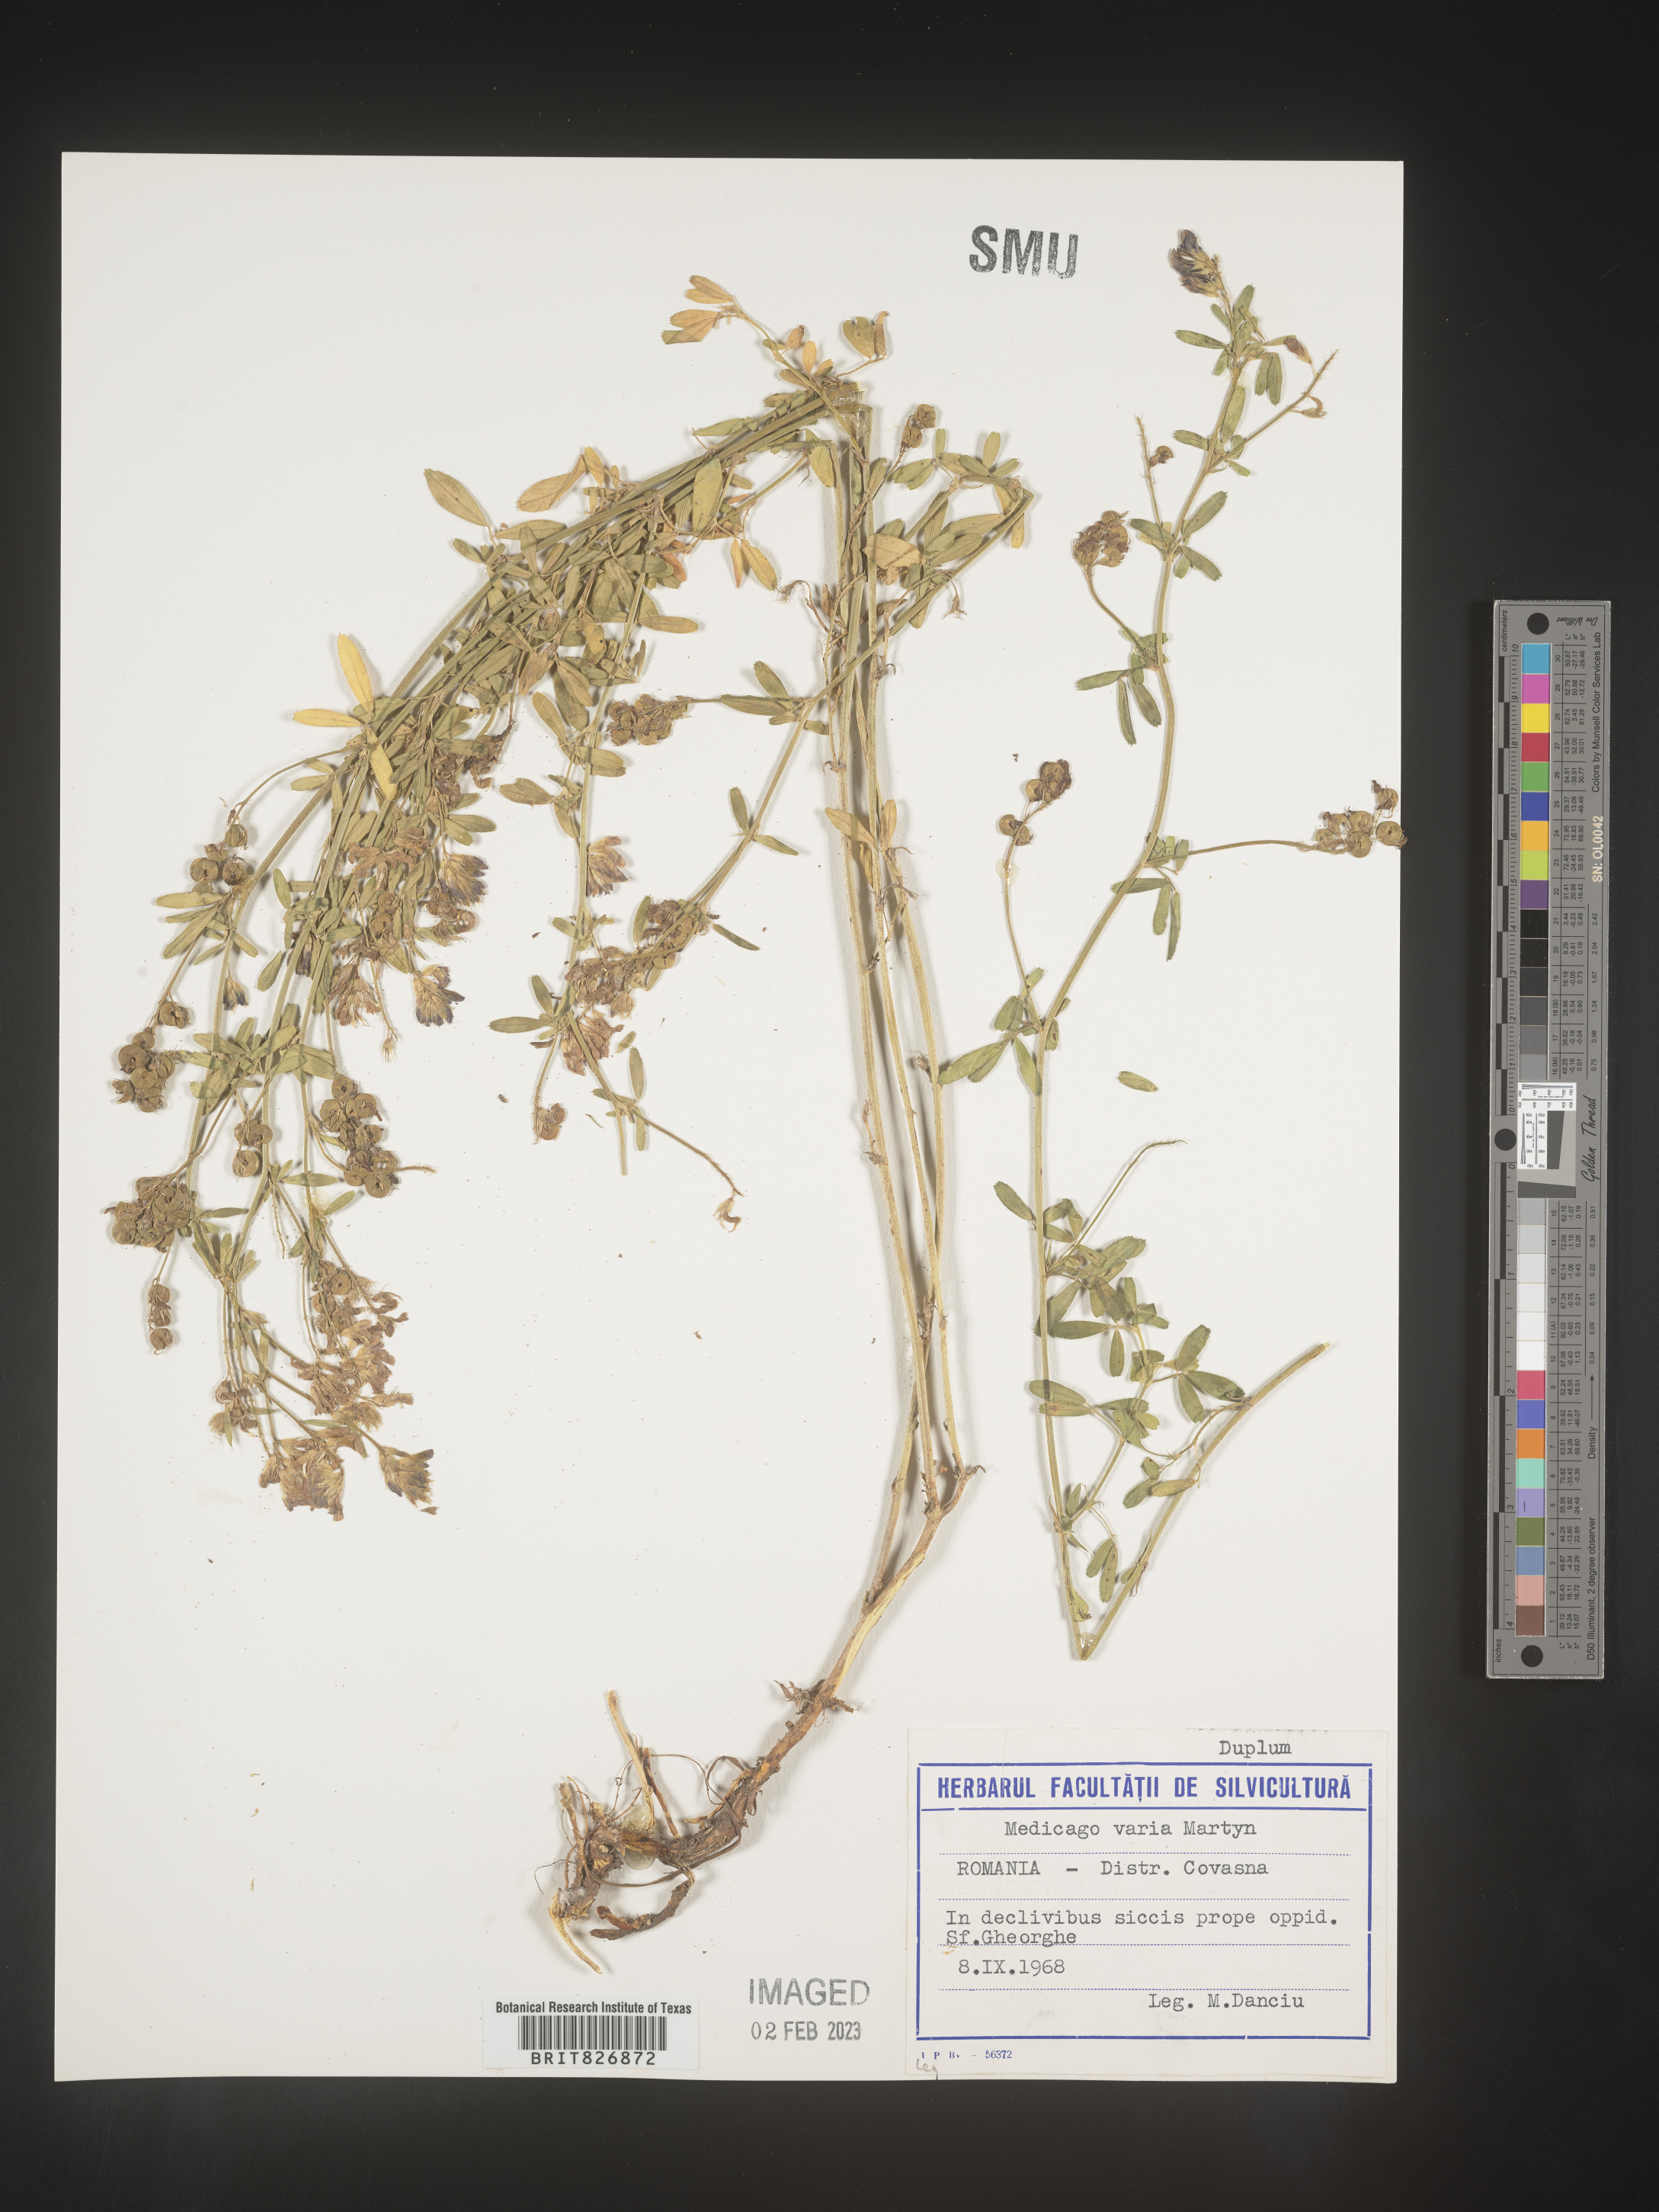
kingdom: Plantae
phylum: Tracheophyta
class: Magnoliopsida
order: Fabales
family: Fabaceae
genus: Medicago
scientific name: Medicago
